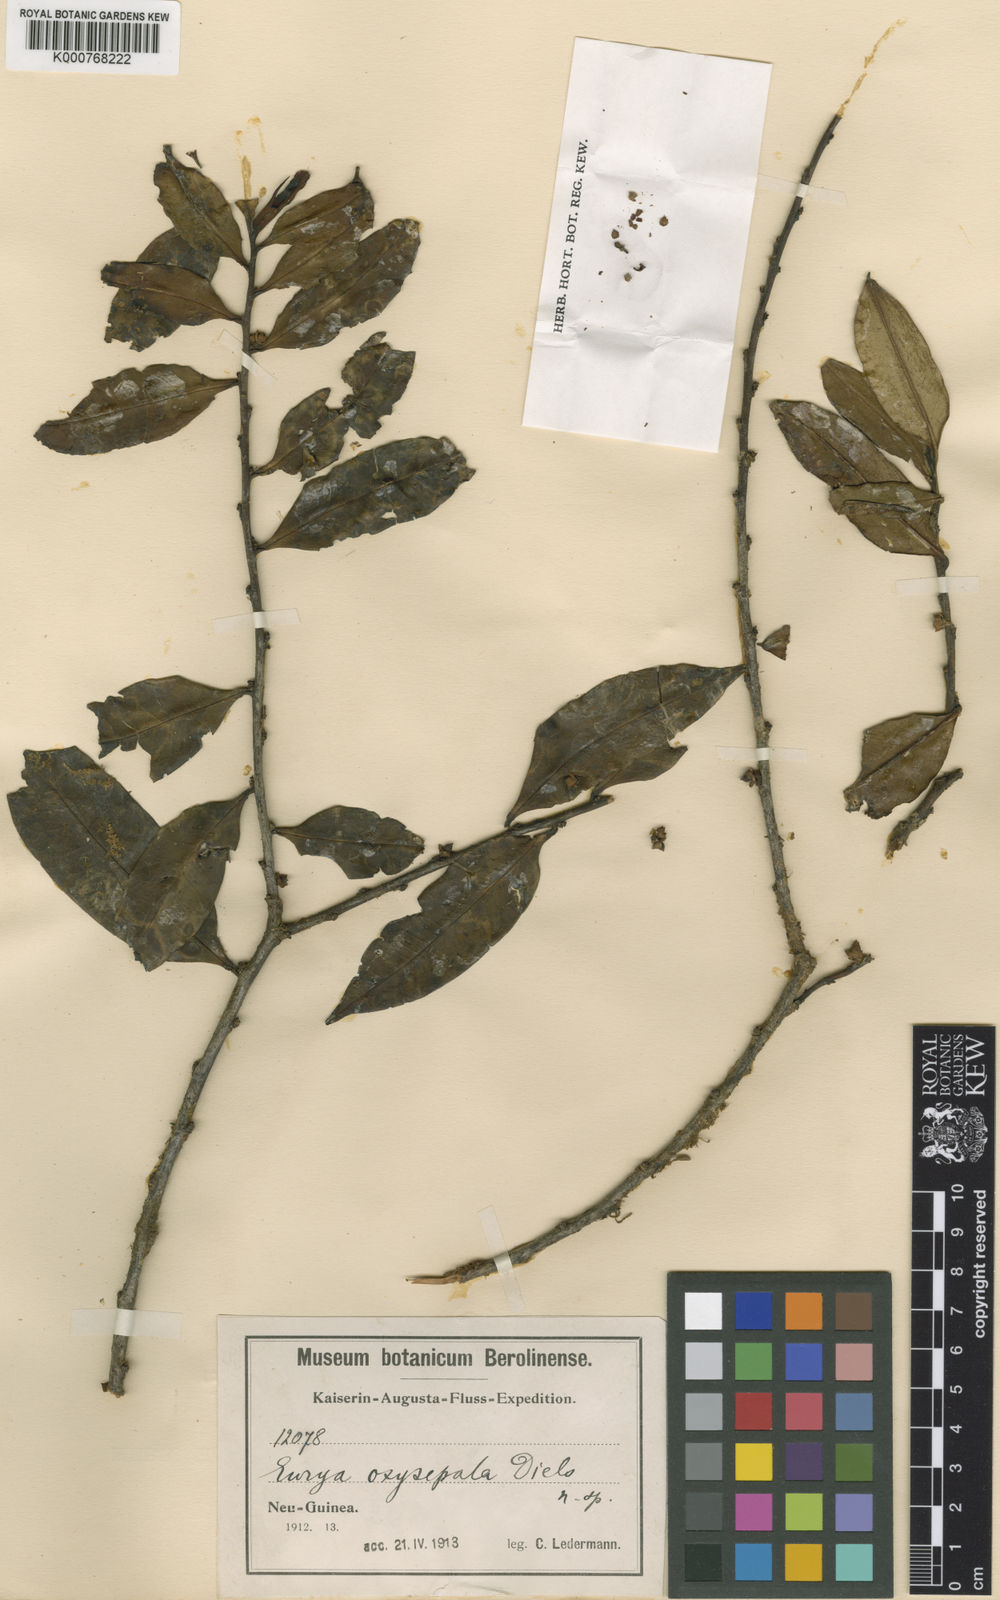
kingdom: Plantae
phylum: Tracheophyta
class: Magnoliopsida
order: Ericales
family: Pentaphylacaceae
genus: Eurya
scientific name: Eurya oxysepala
